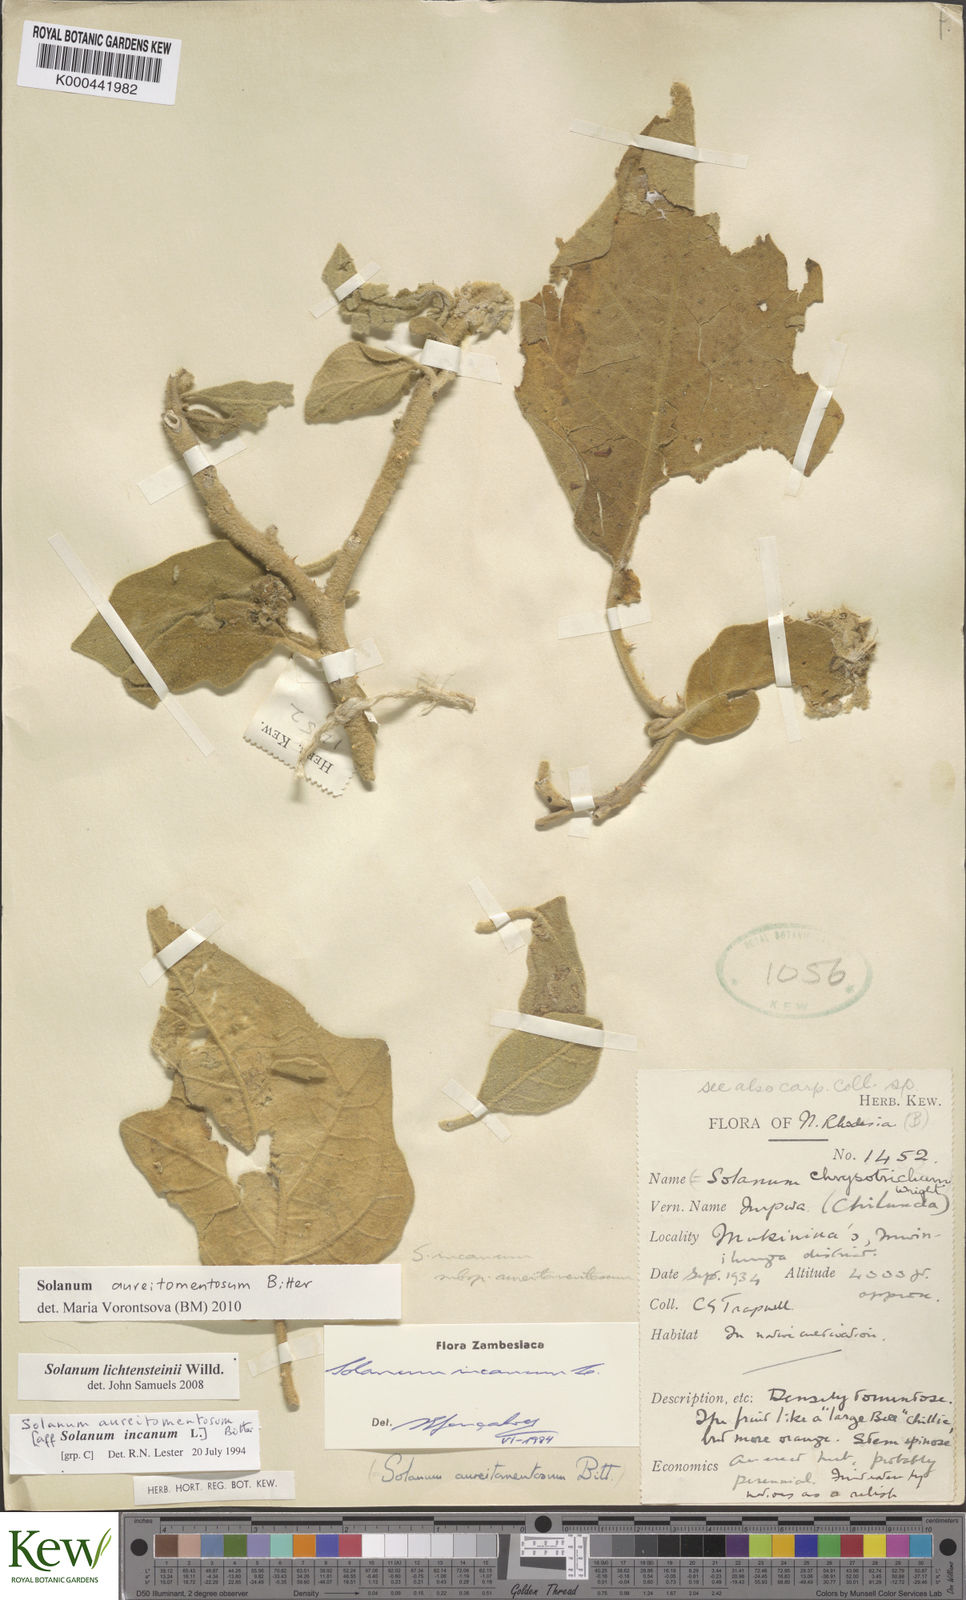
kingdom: Plantae
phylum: Tracheophyta
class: Magnoliopsida
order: Solanales
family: Solanaceae
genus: Solanum
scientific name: Solanum aureitomentosum
